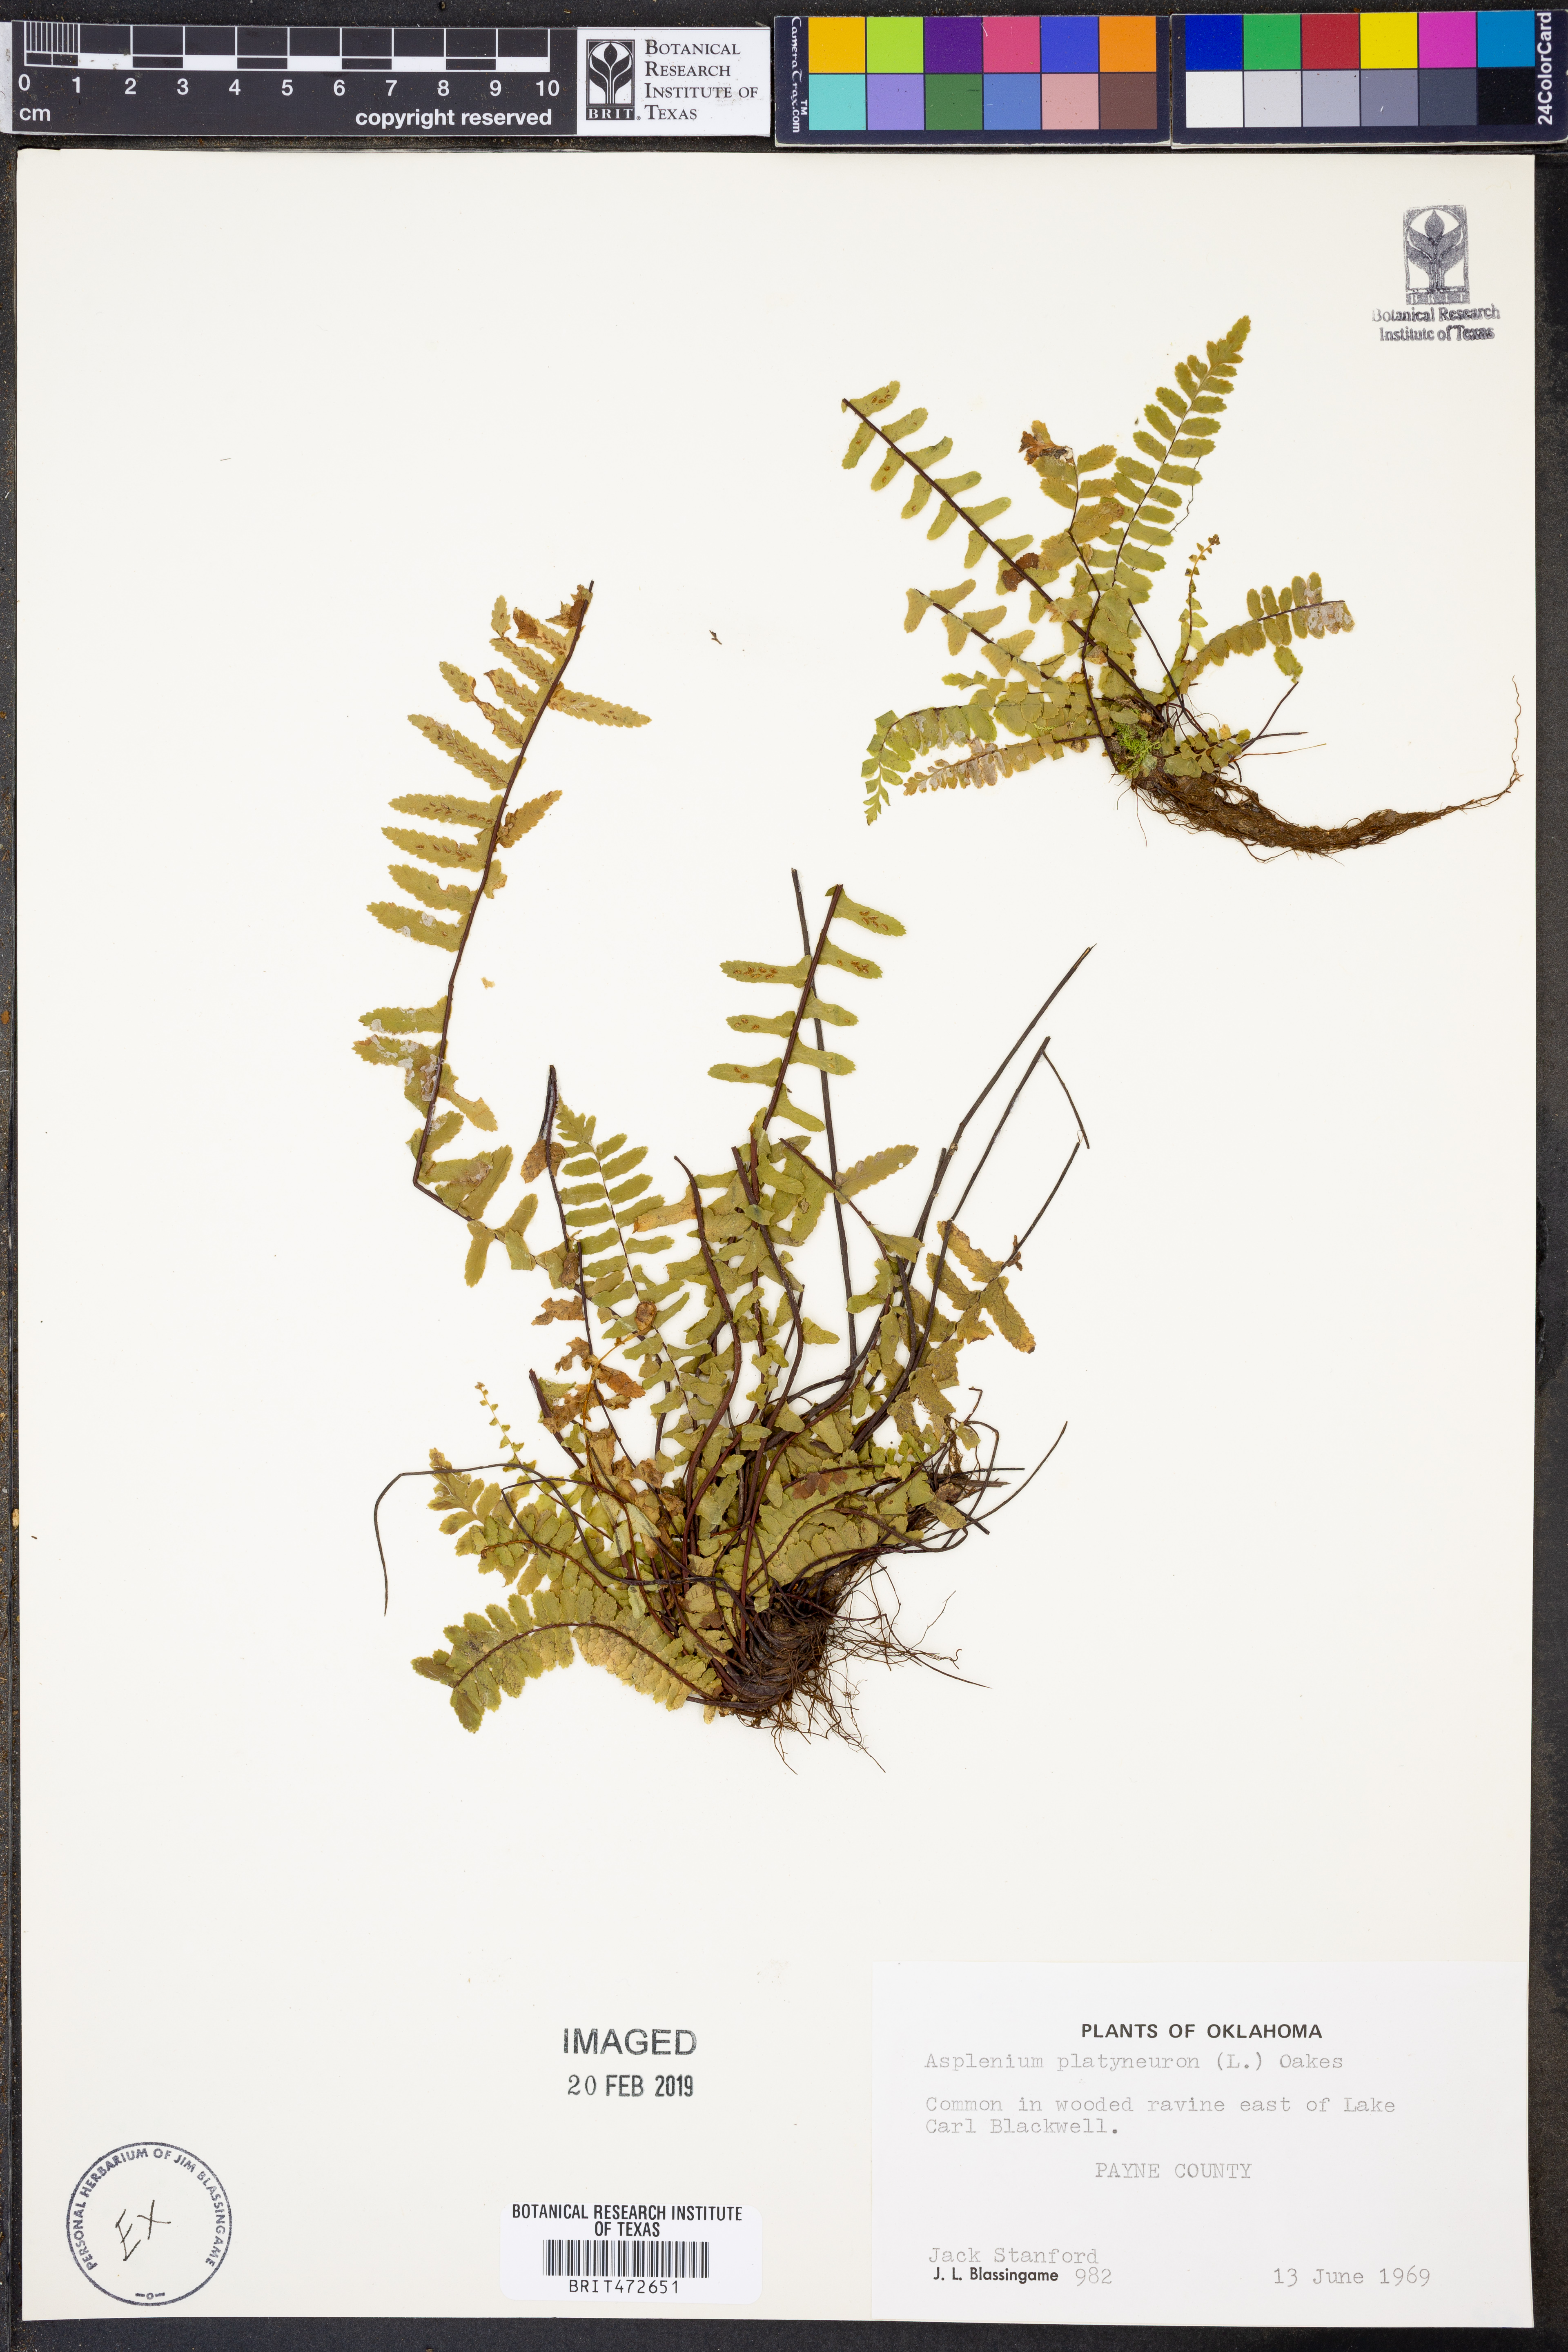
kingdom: Plantae
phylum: Tracheophyta
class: Polypodiopsida
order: Polypodiales
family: Aspleniaceae
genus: Asplenium
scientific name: Asplenium platyneuron
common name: Ebony spleenwort
